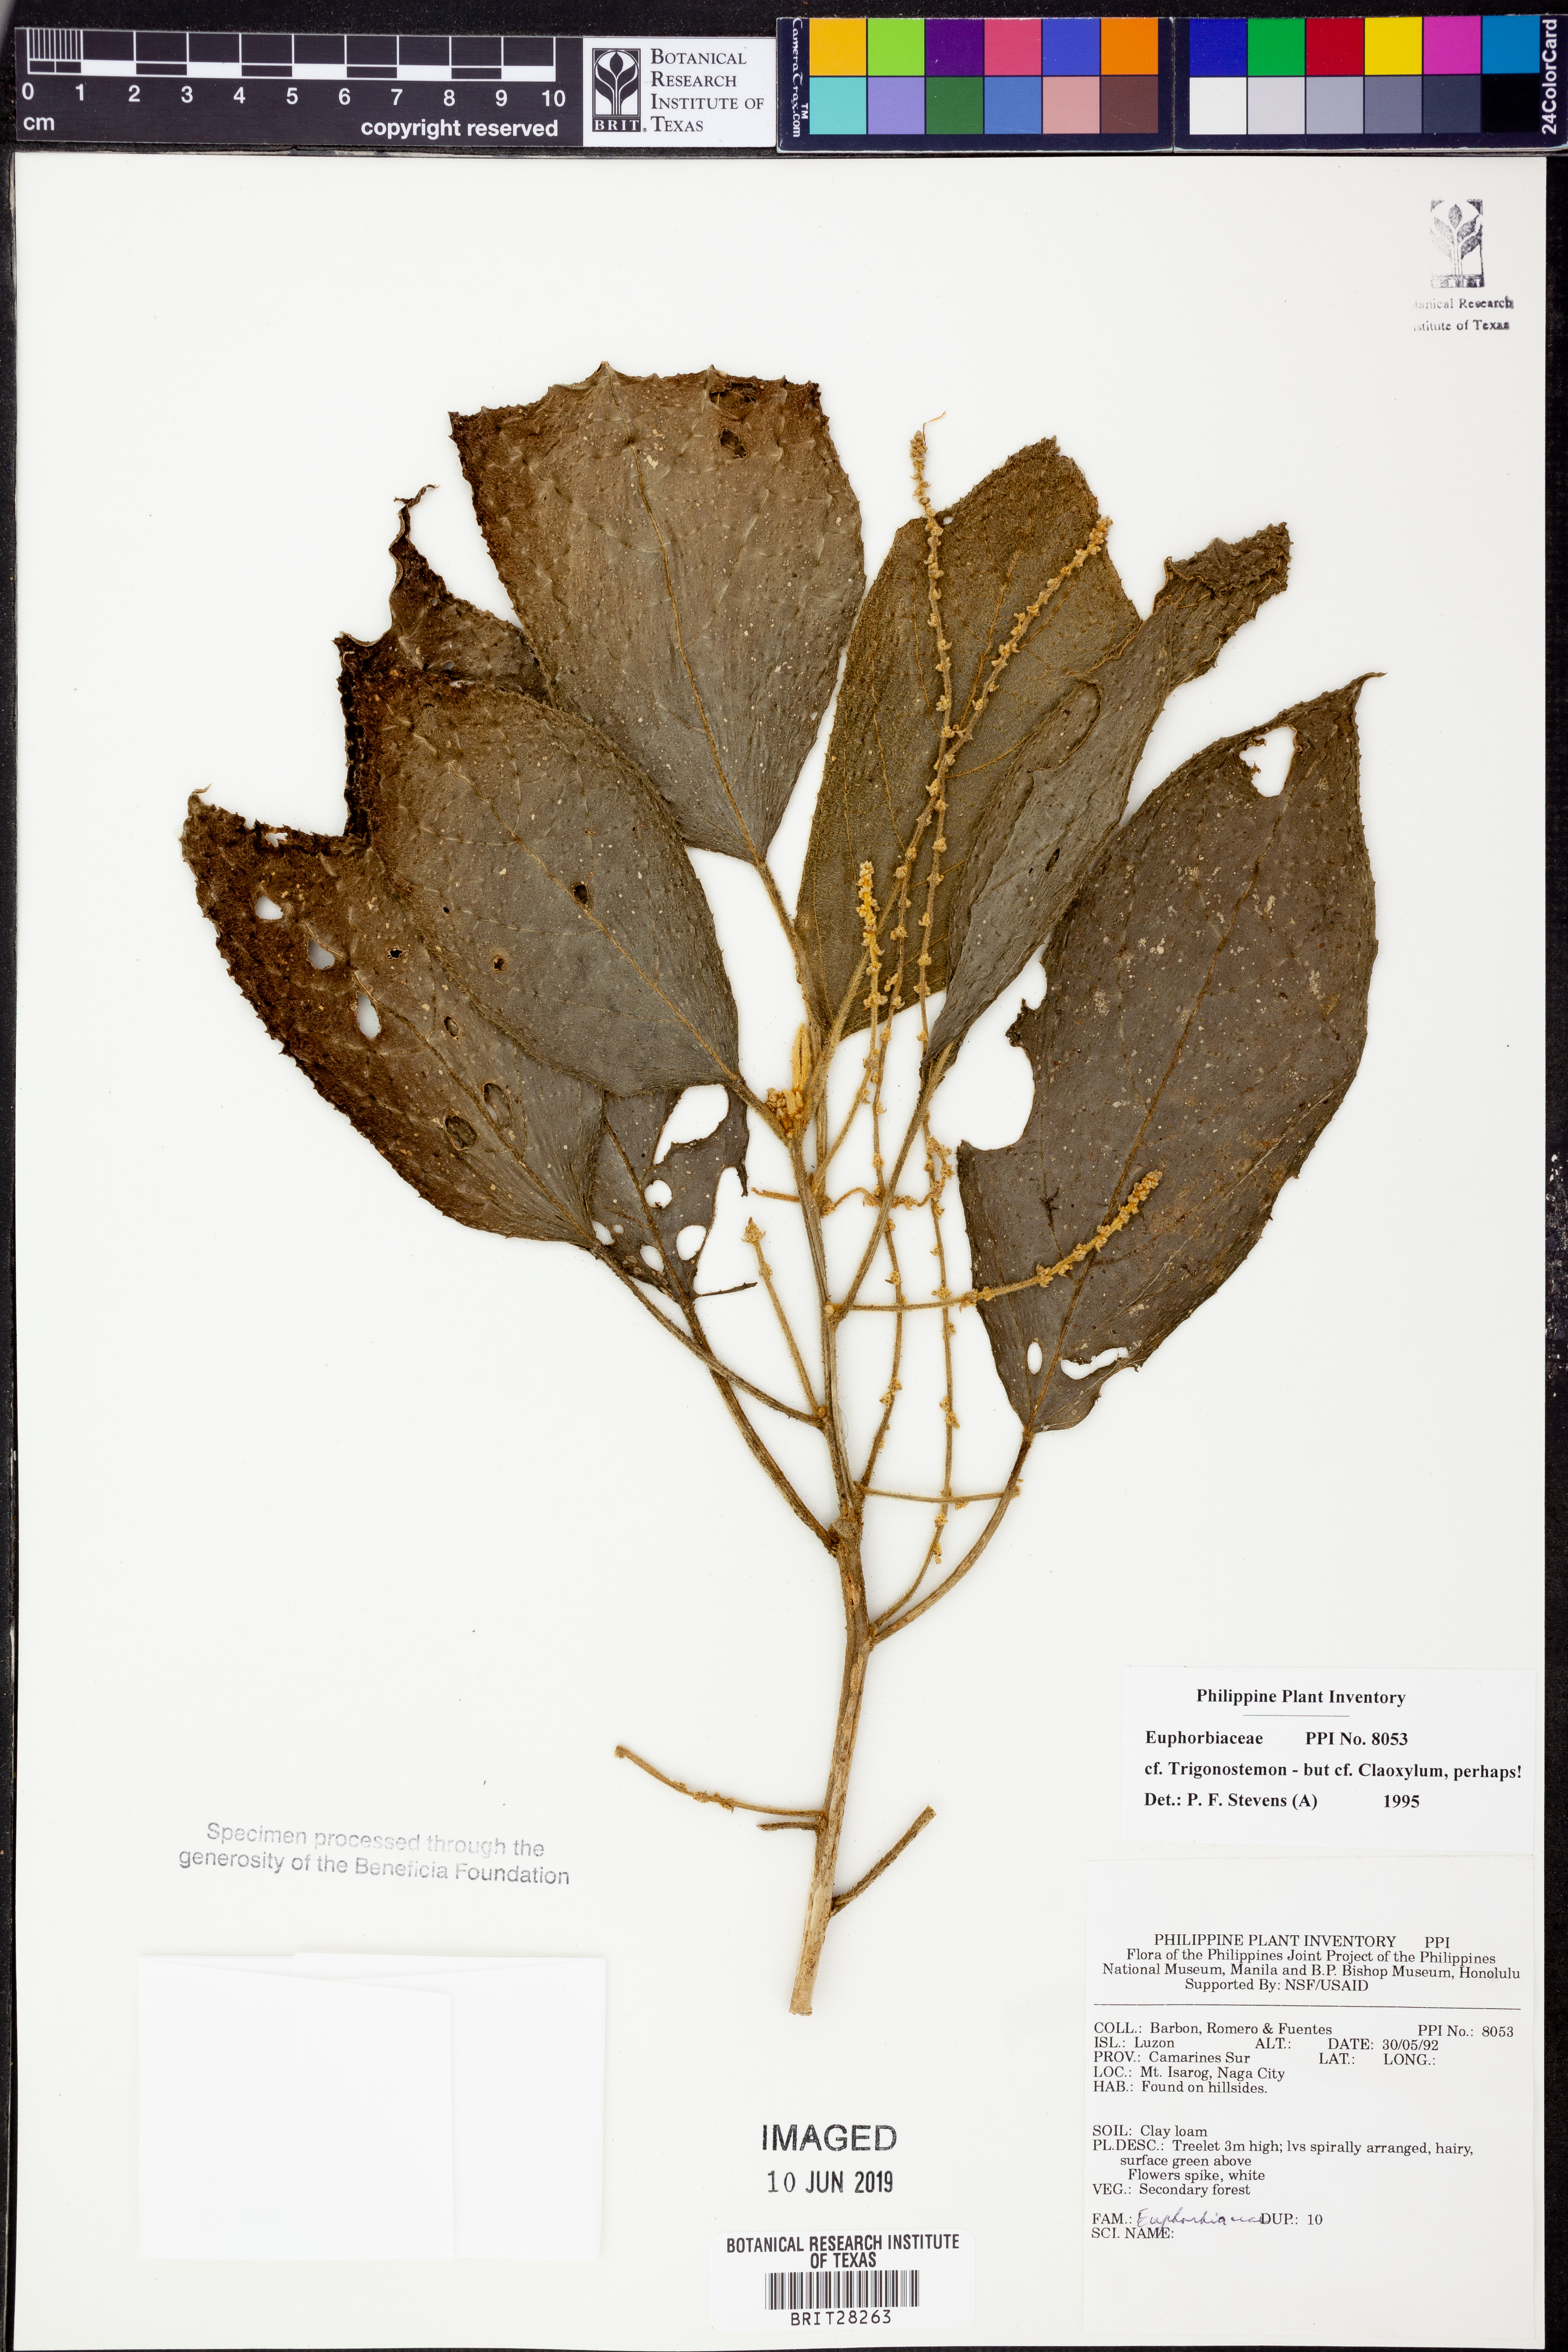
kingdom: Plantae
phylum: Tracheophyta
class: Magnoliopsida
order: Malpighiales
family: Euphorbiaceae
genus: Trigonostemon
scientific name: Trigonostemon
